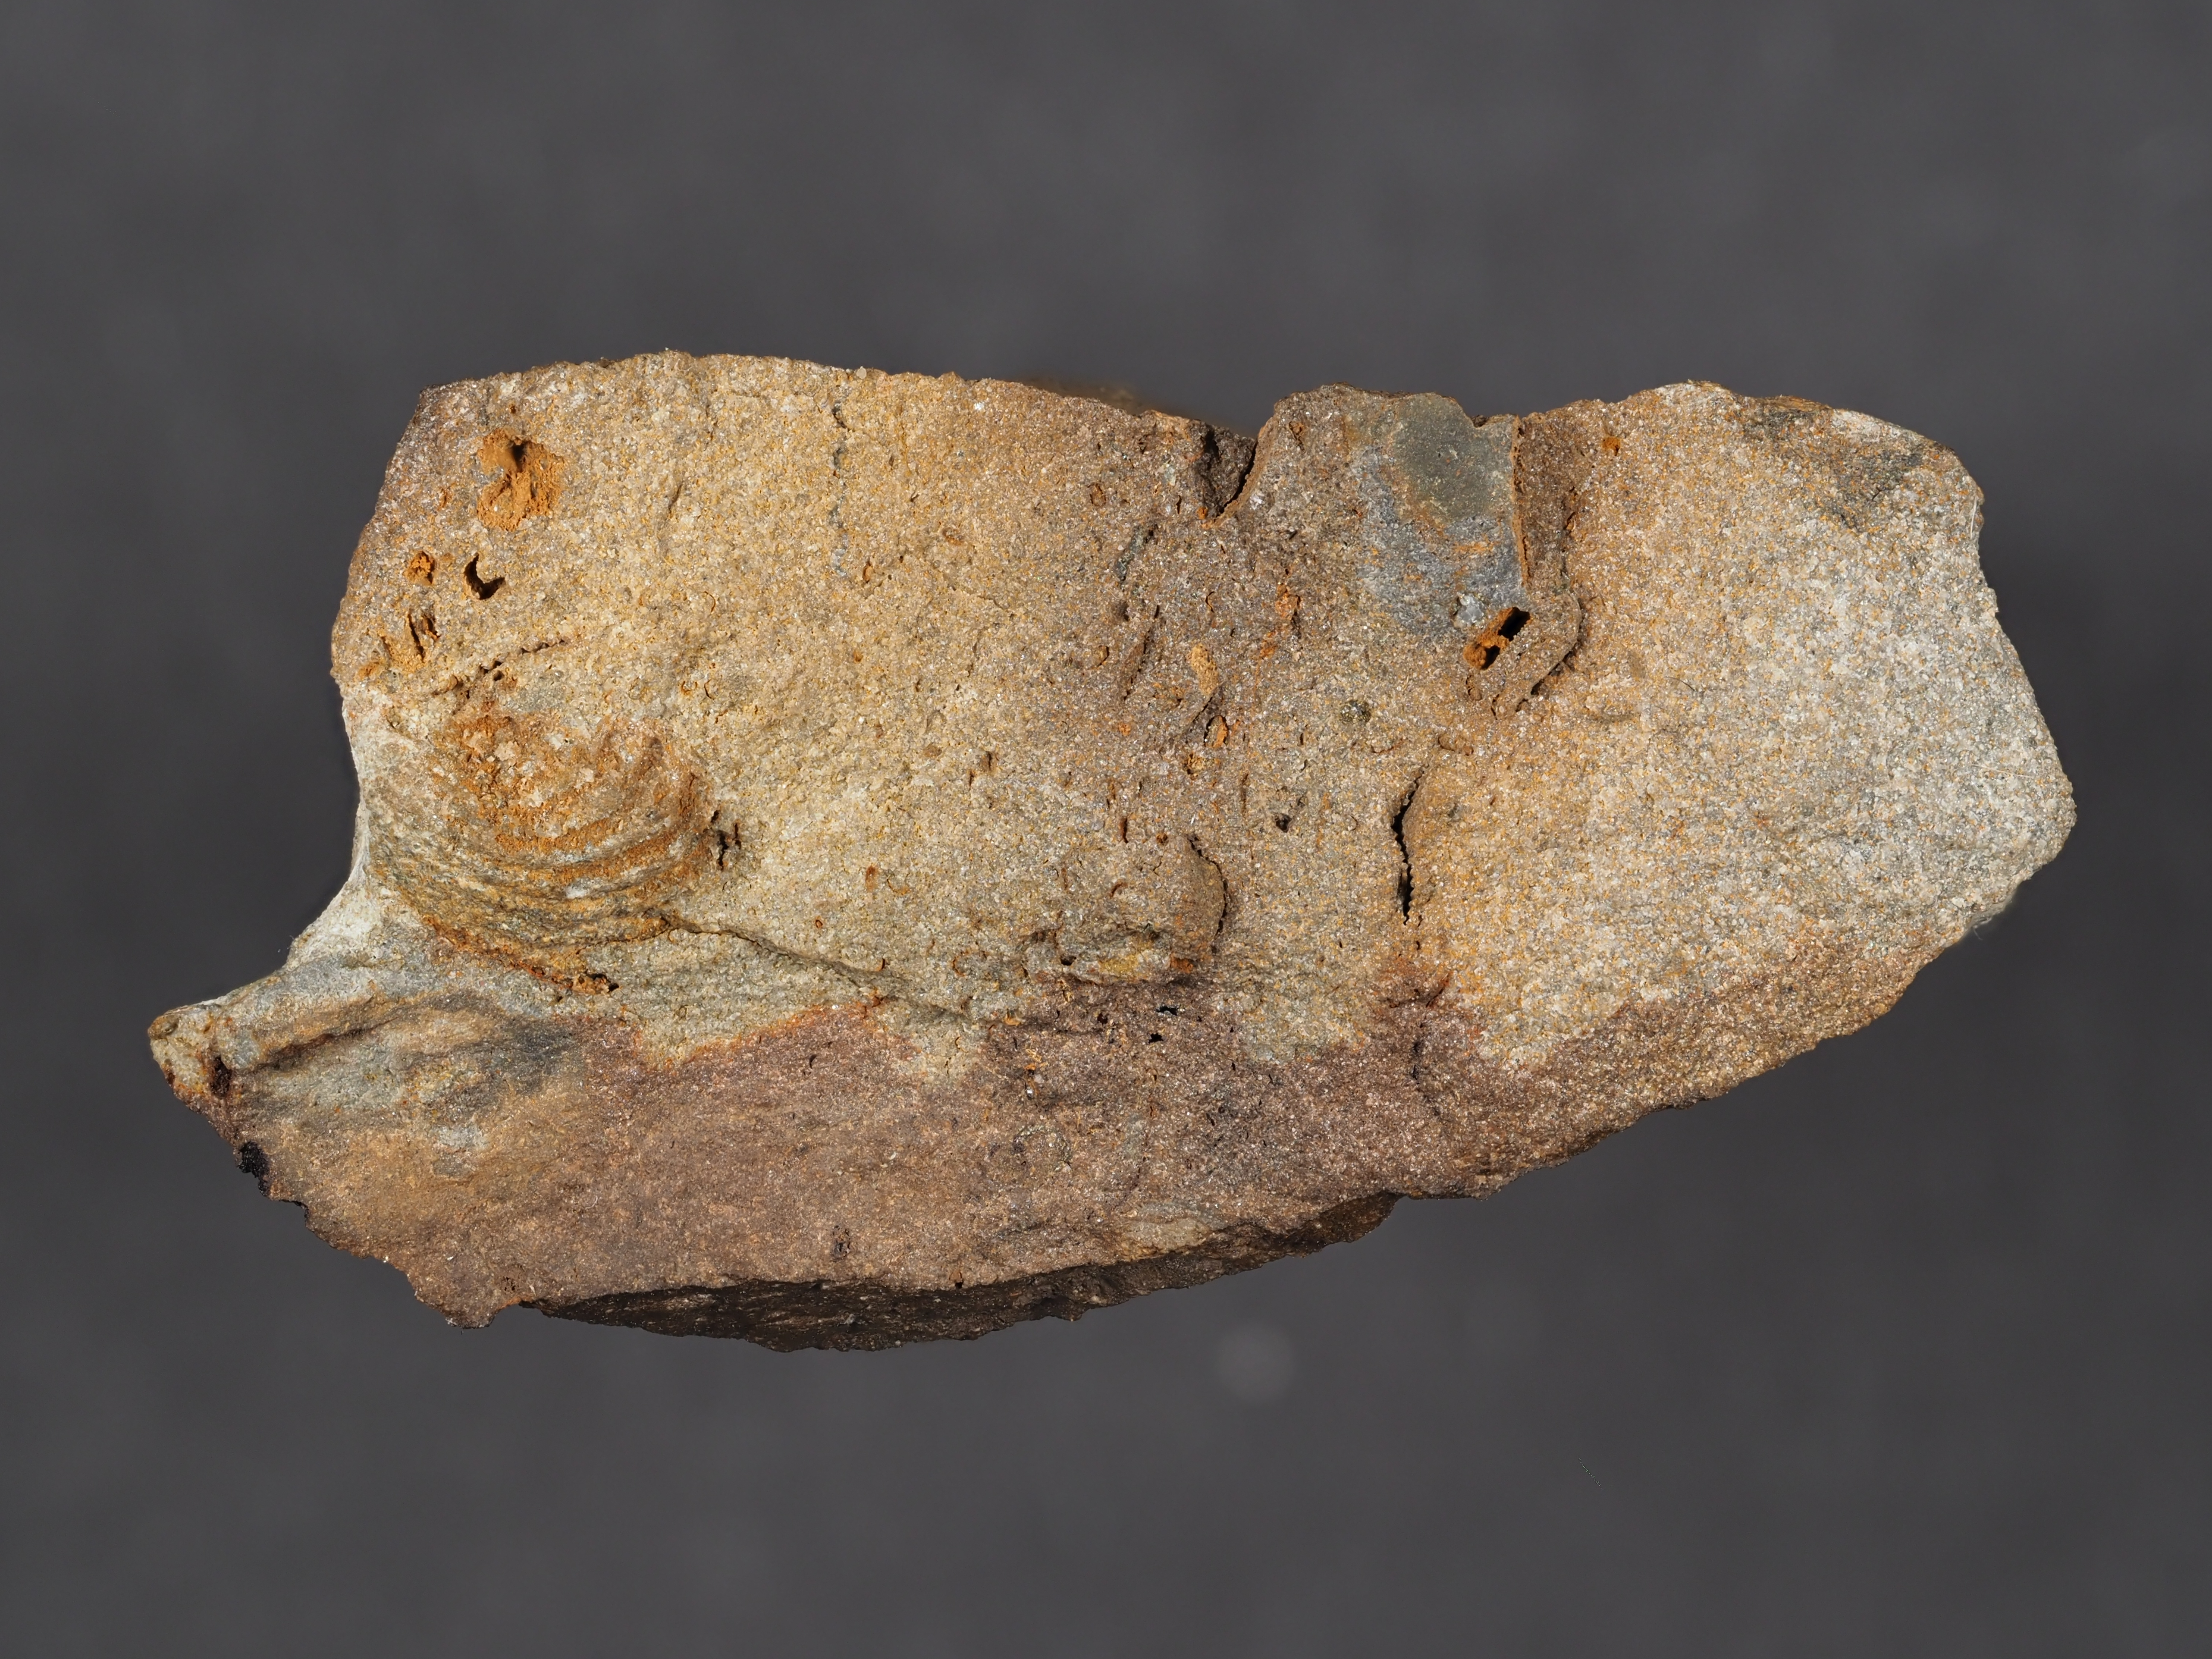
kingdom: Animalia
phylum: Arthropoda
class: Ostracoda
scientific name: Ostracoda
